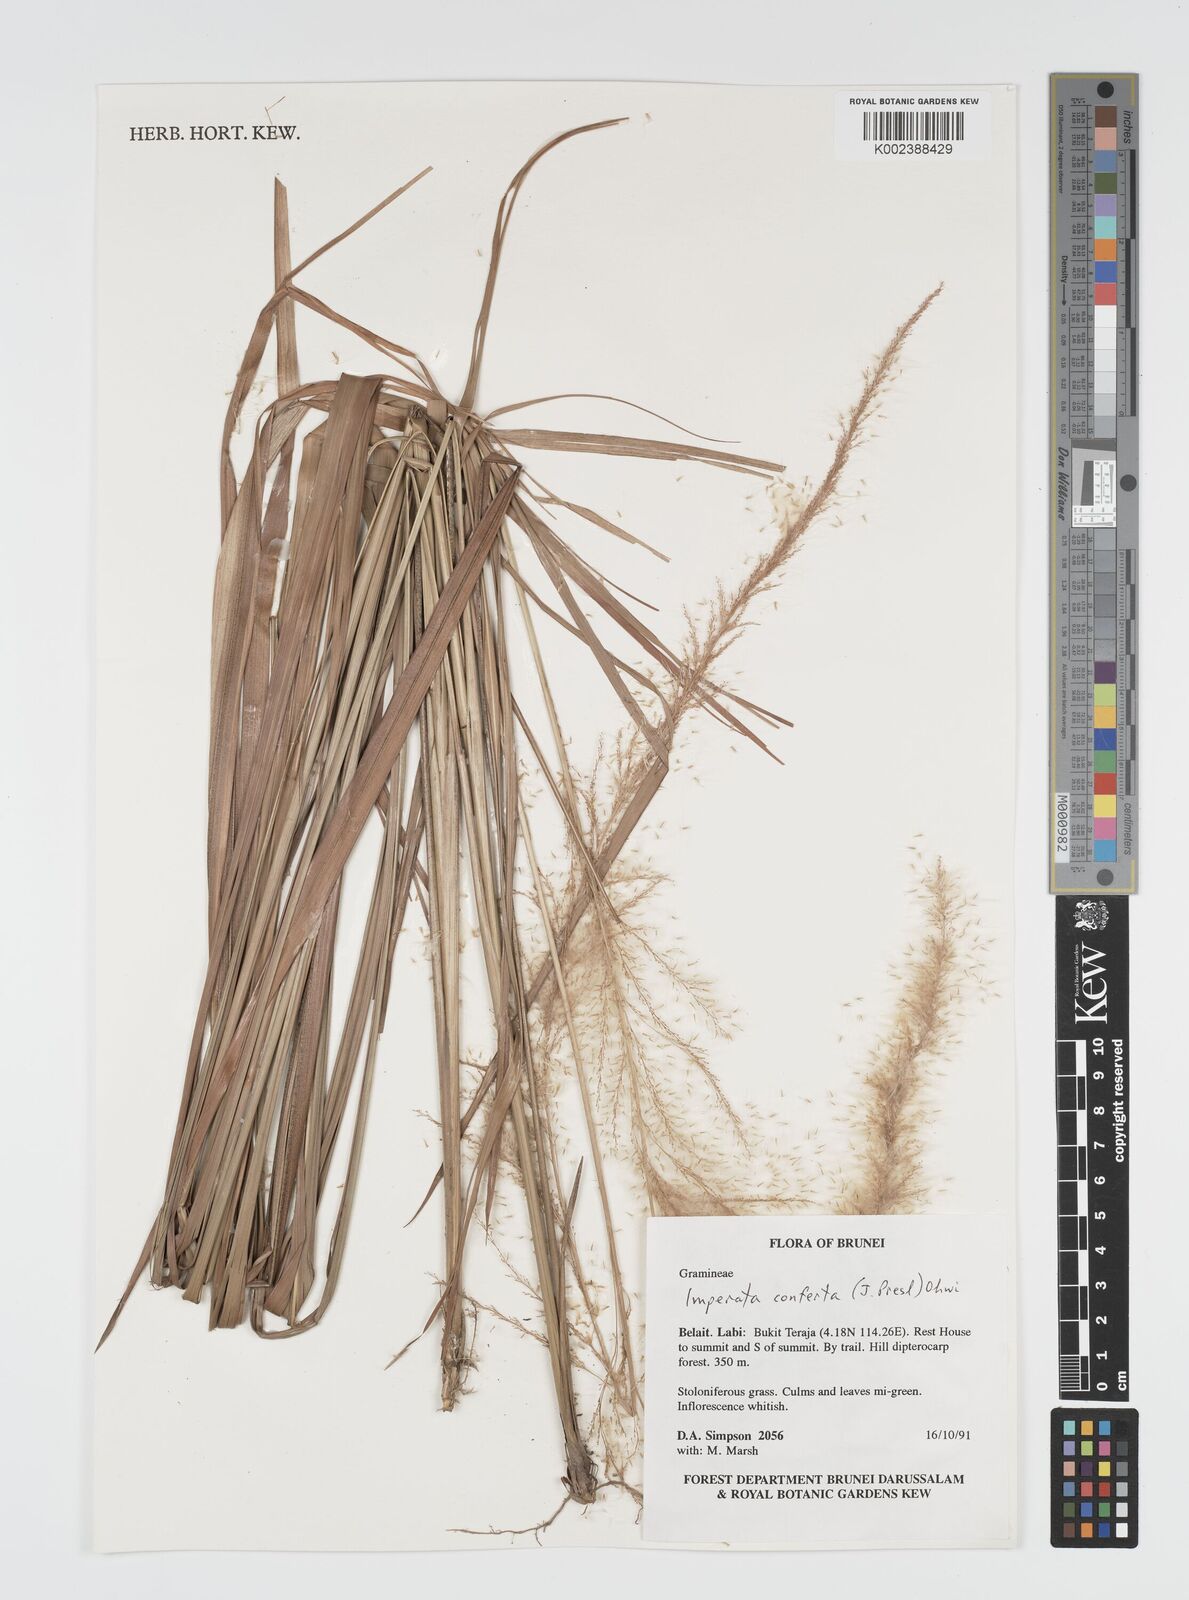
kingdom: Plantae
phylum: Tracheophyta
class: Liliopsida
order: Poales
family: Poaceae
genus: Imperata
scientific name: Imperata conferta
